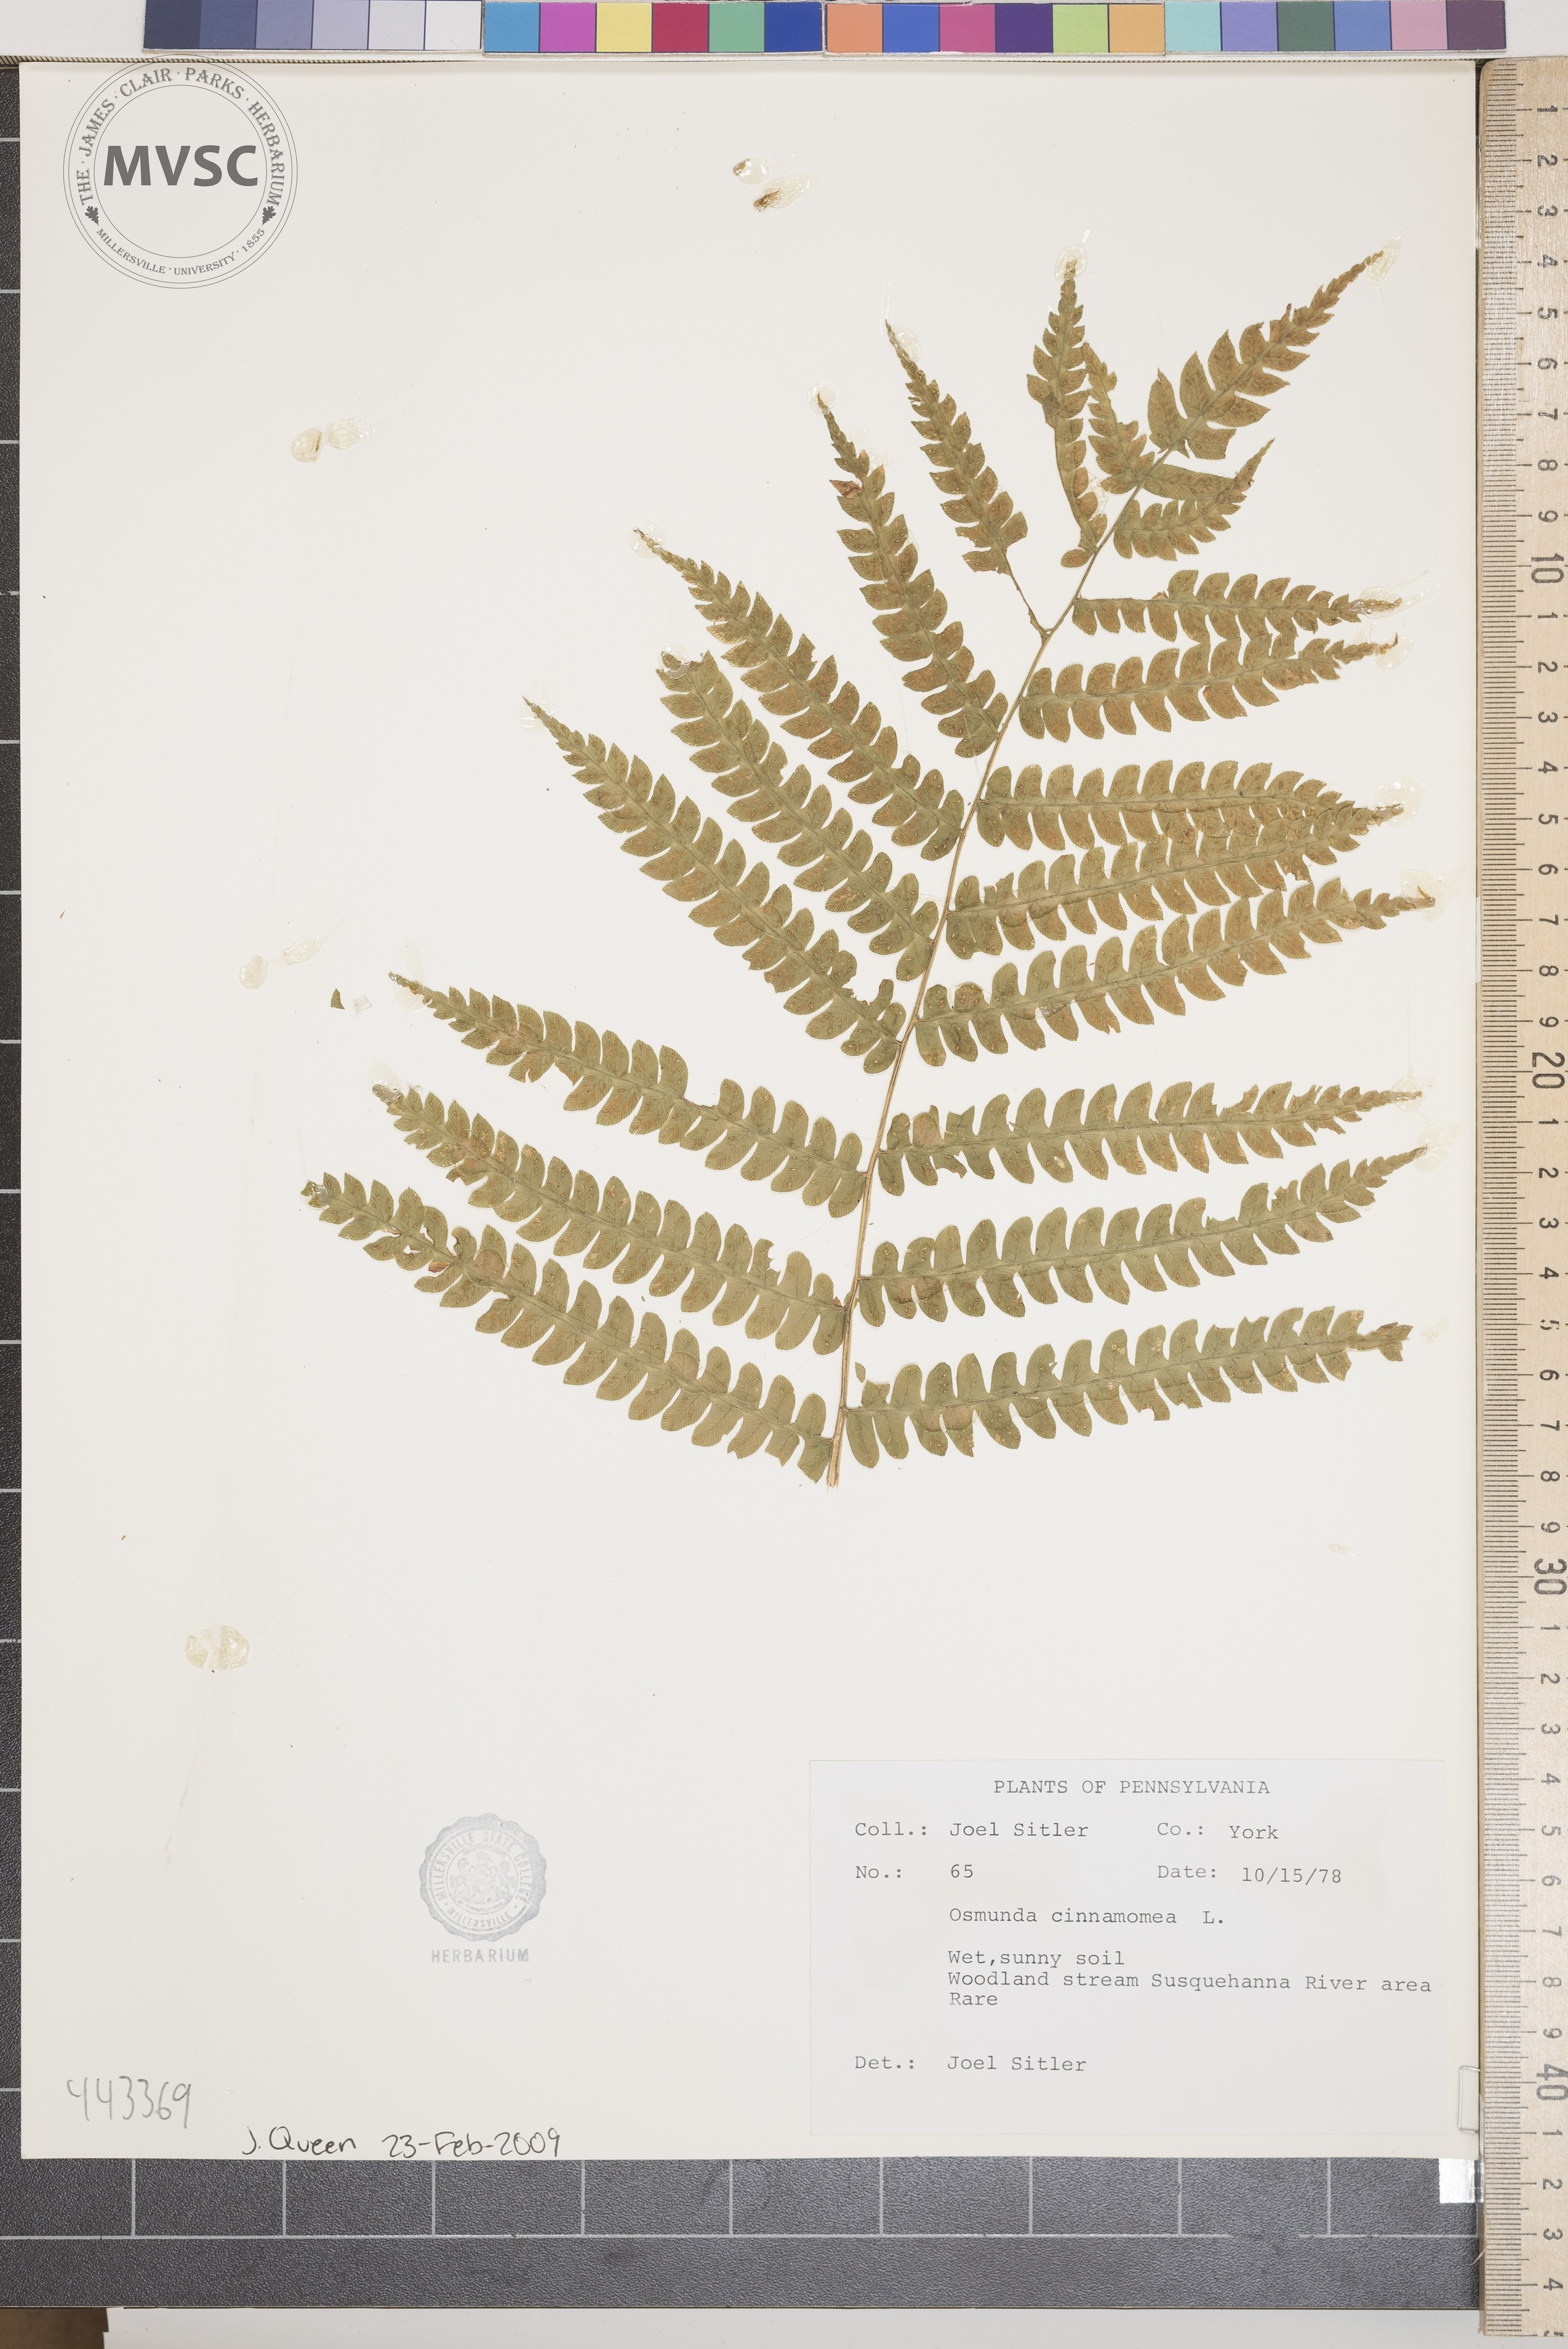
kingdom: Plantae
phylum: Tracheophyta
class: Polypodiopsida
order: Osmundales
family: Osmundaceae
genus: Osmundastrum
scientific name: Osmundastrum cinnamomeum
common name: Cinnamon fern
